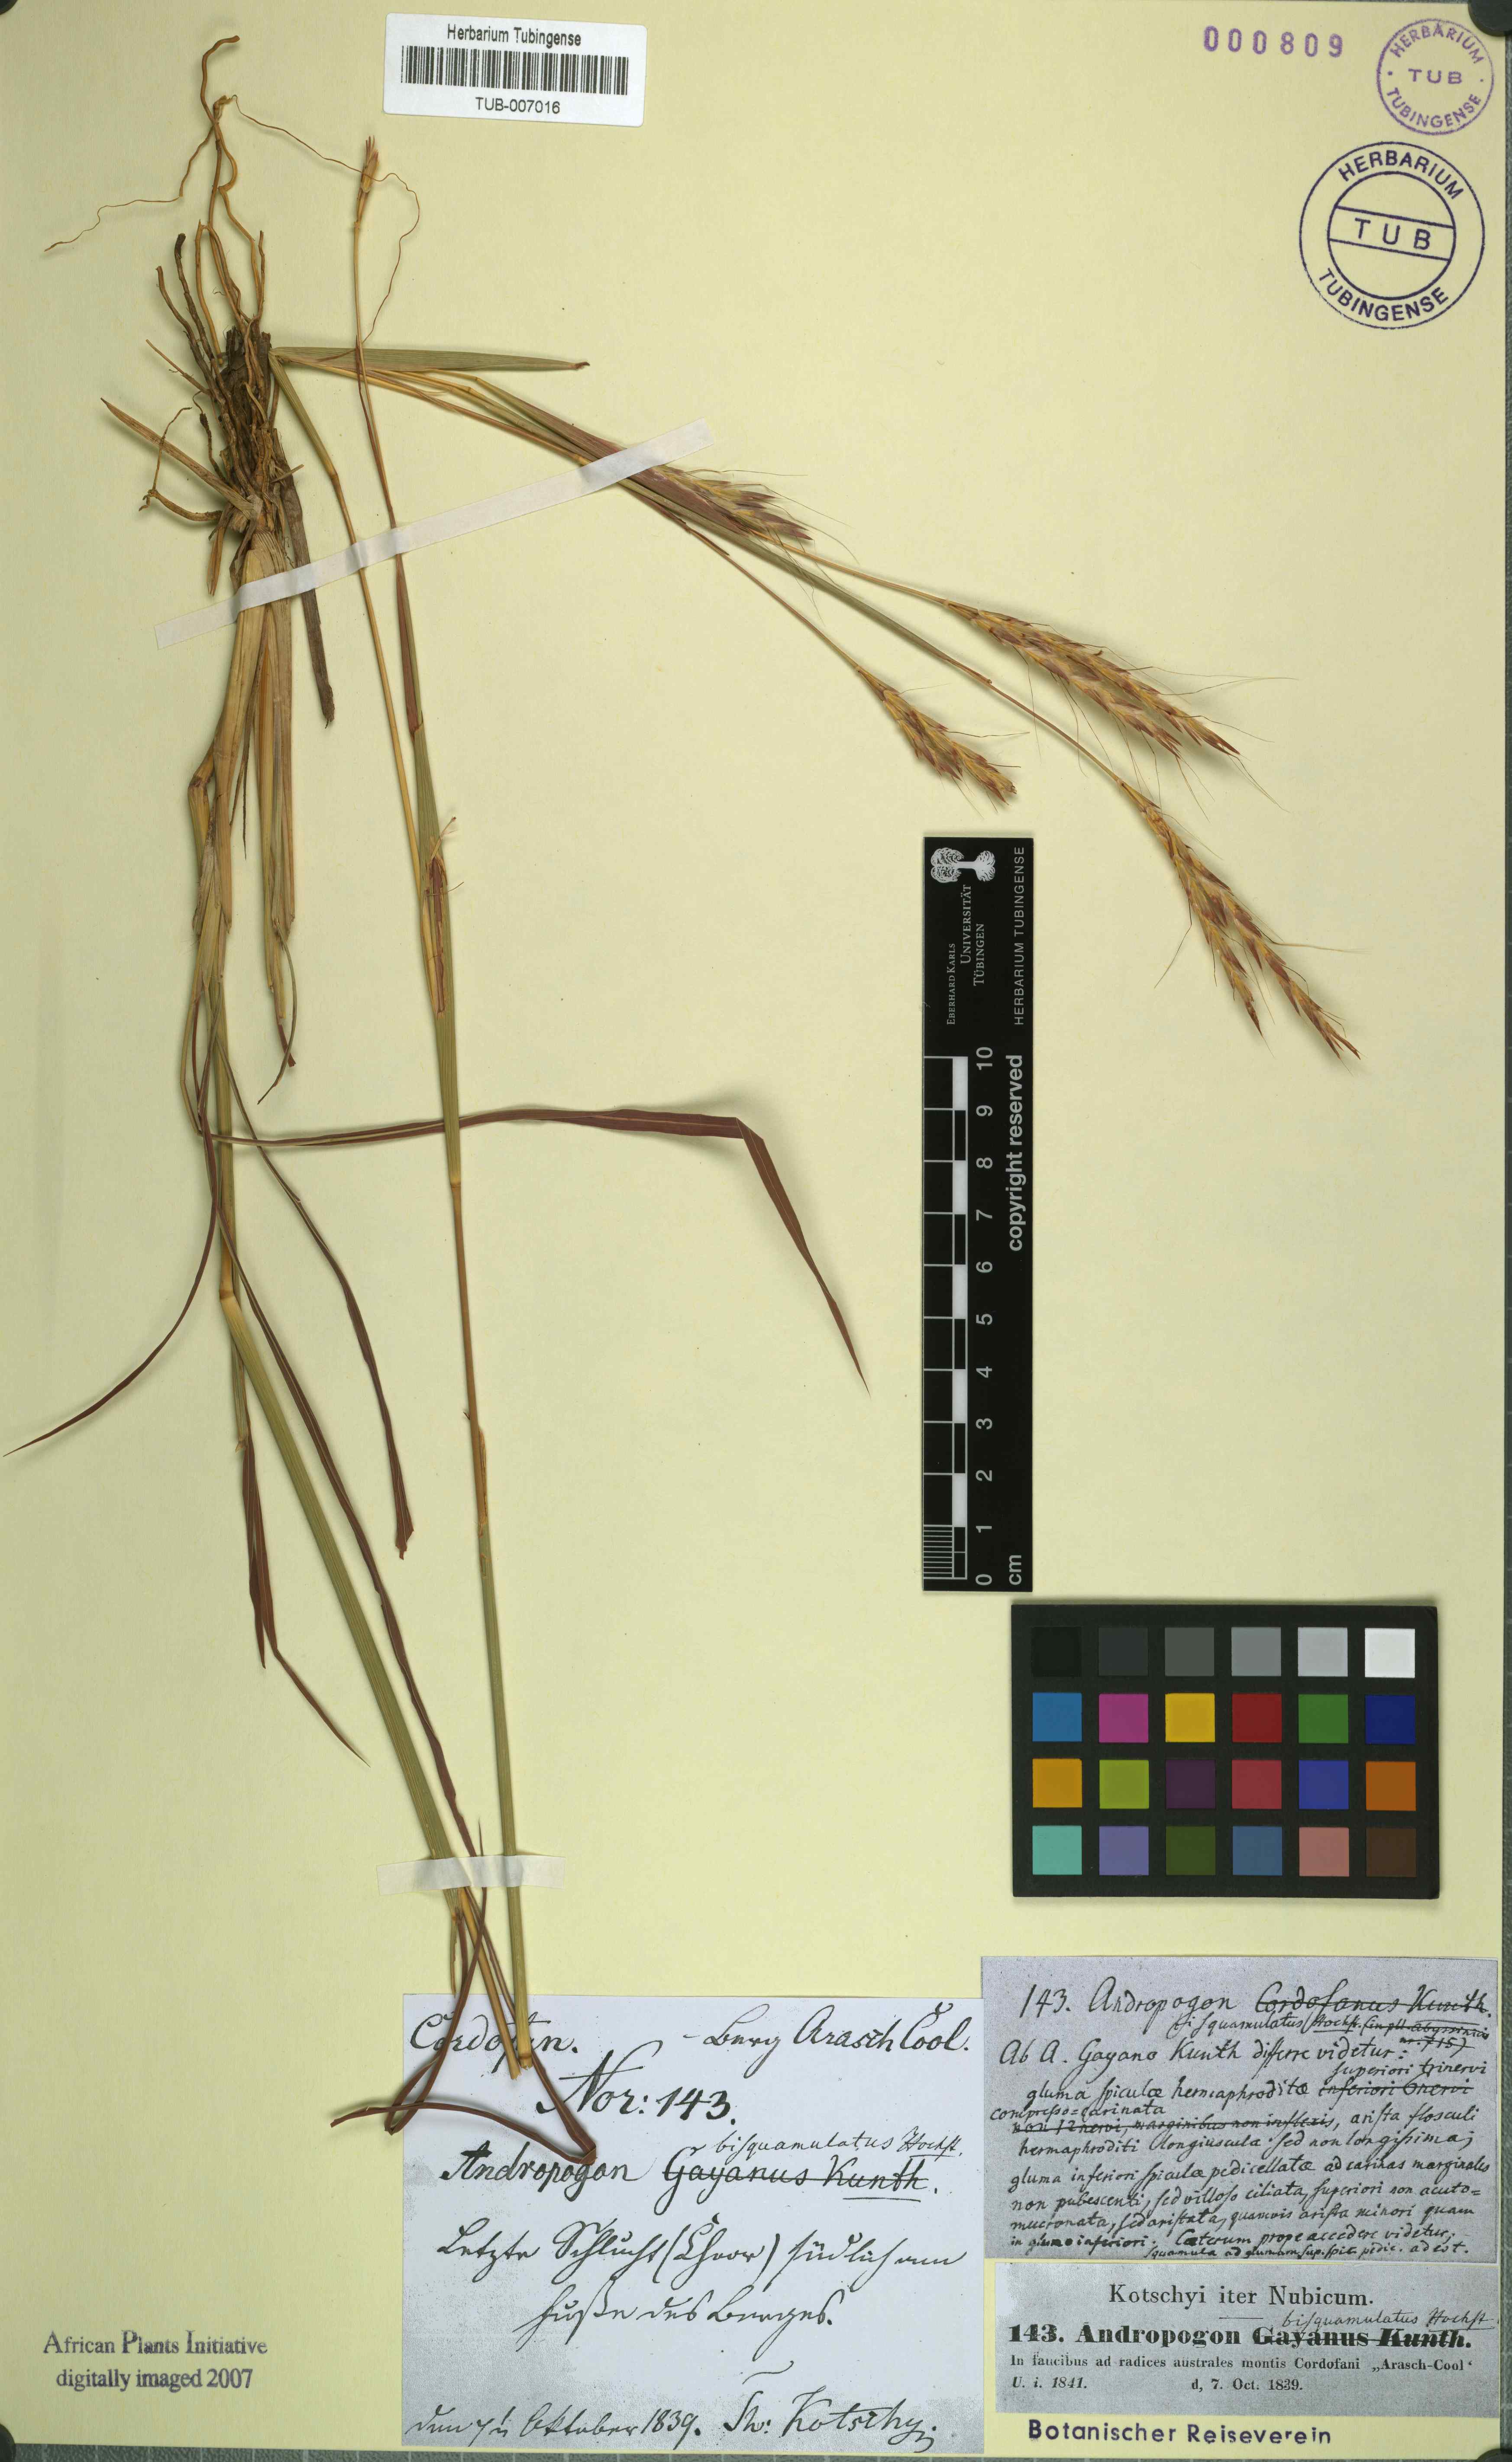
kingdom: Plantae
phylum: Tracheophyta
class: Liliopsida
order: Poales
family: Poaceae
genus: Andropogon
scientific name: Andropogon gayanus
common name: Tambuki grass
